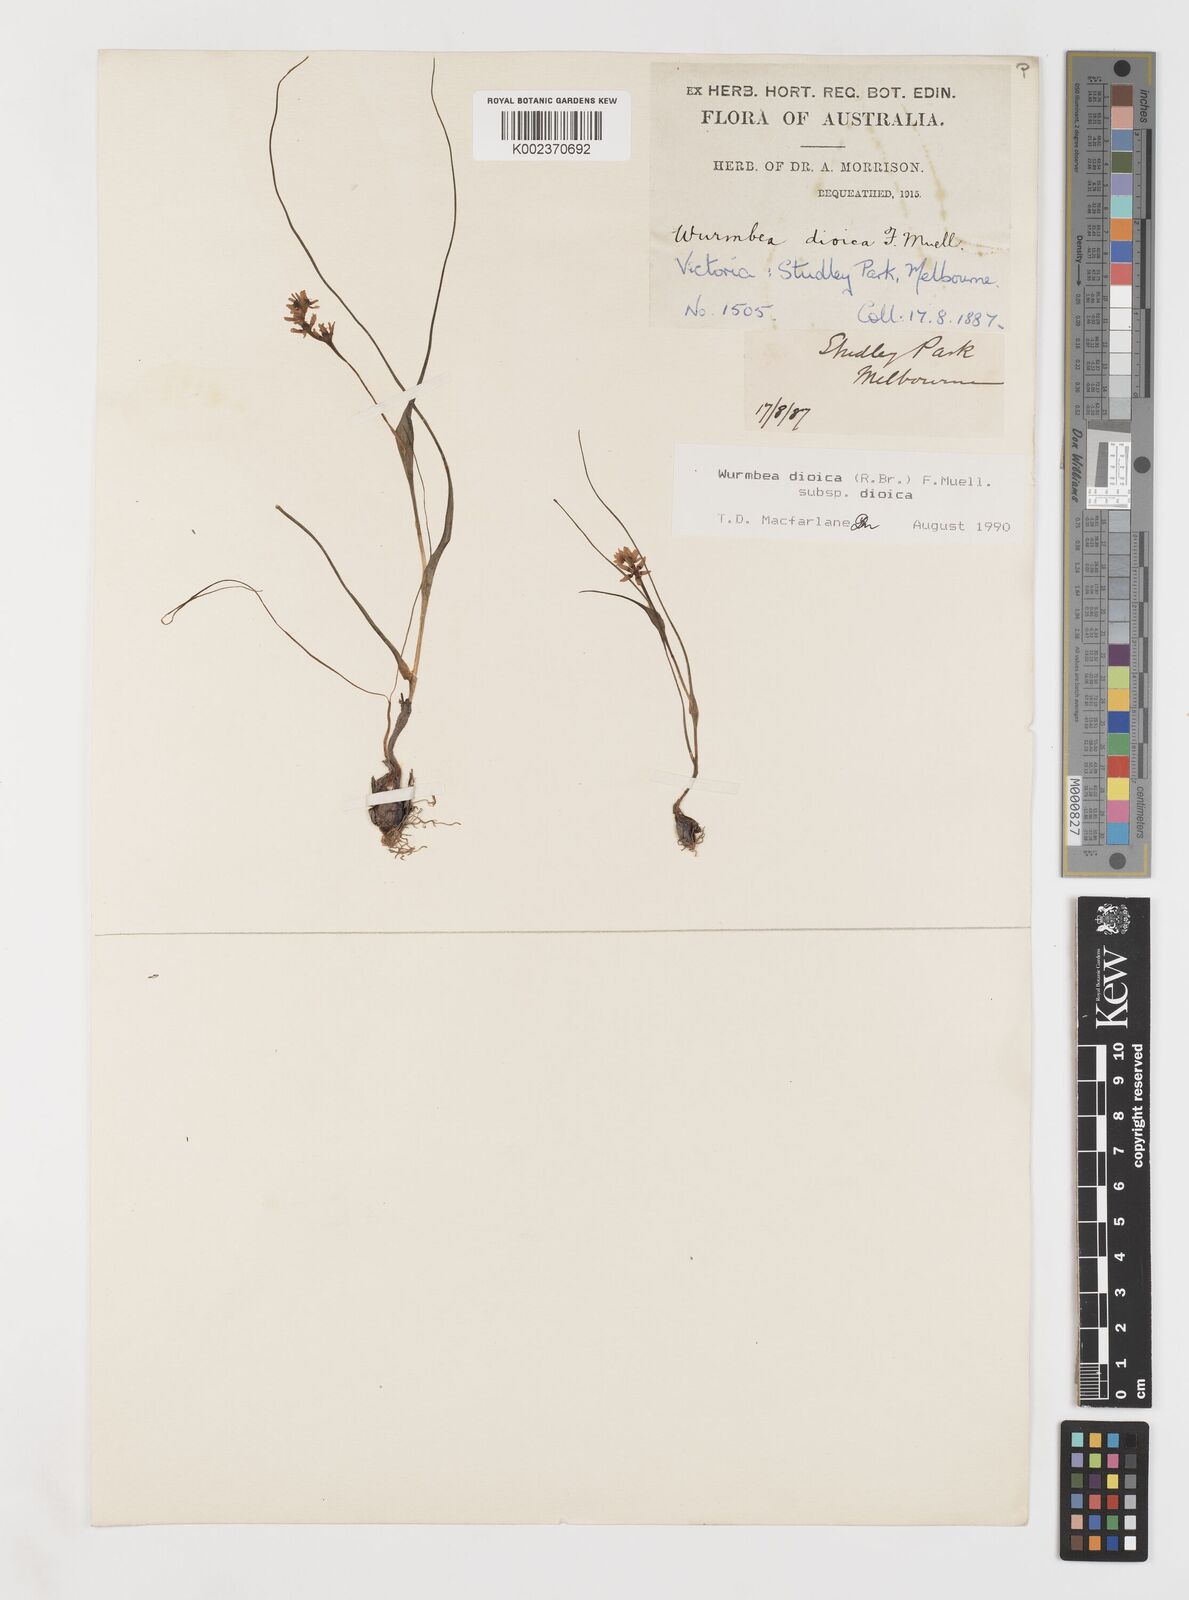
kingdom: Plantae
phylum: Tracheophyta
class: Liliopsida
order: Liliales
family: Colchicaceae
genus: Wurmbea
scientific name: Wurmbea dioica
